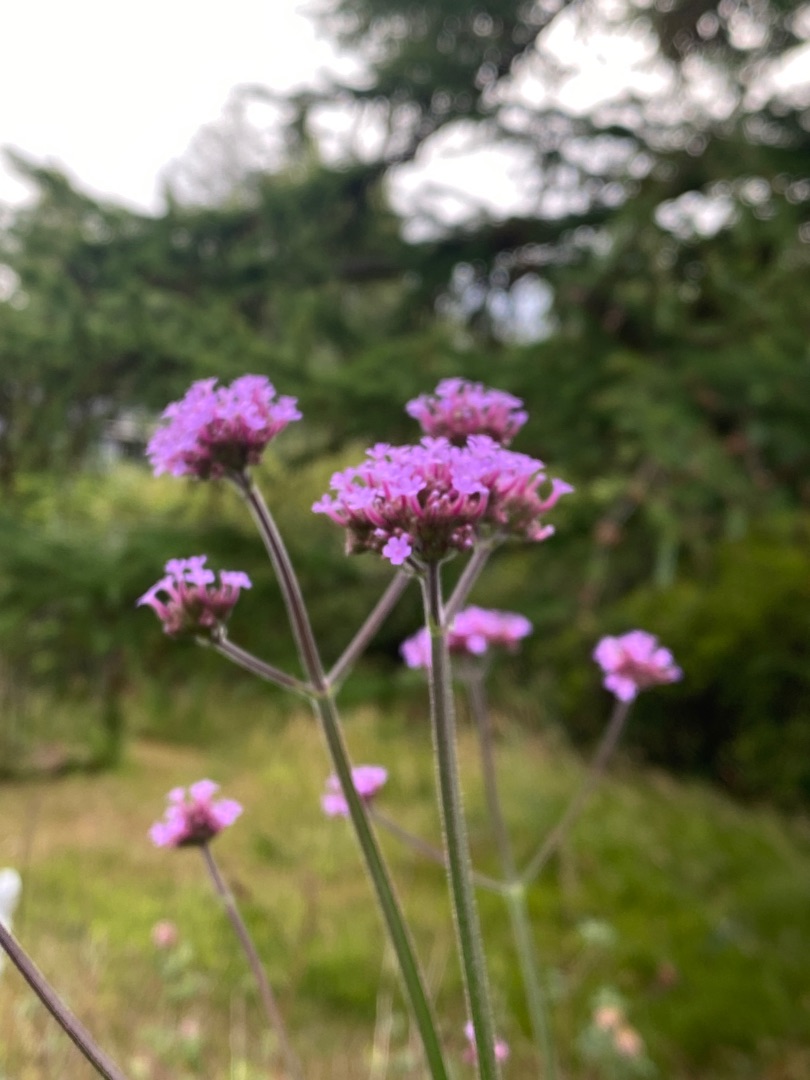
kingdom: Plantae
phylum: Tracheophyta
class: Magnoliopsida
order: Lamiales
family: Verbenaceae
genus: Verbena
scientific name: Verbena bonariensis
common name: Kæmpe-jernurt
